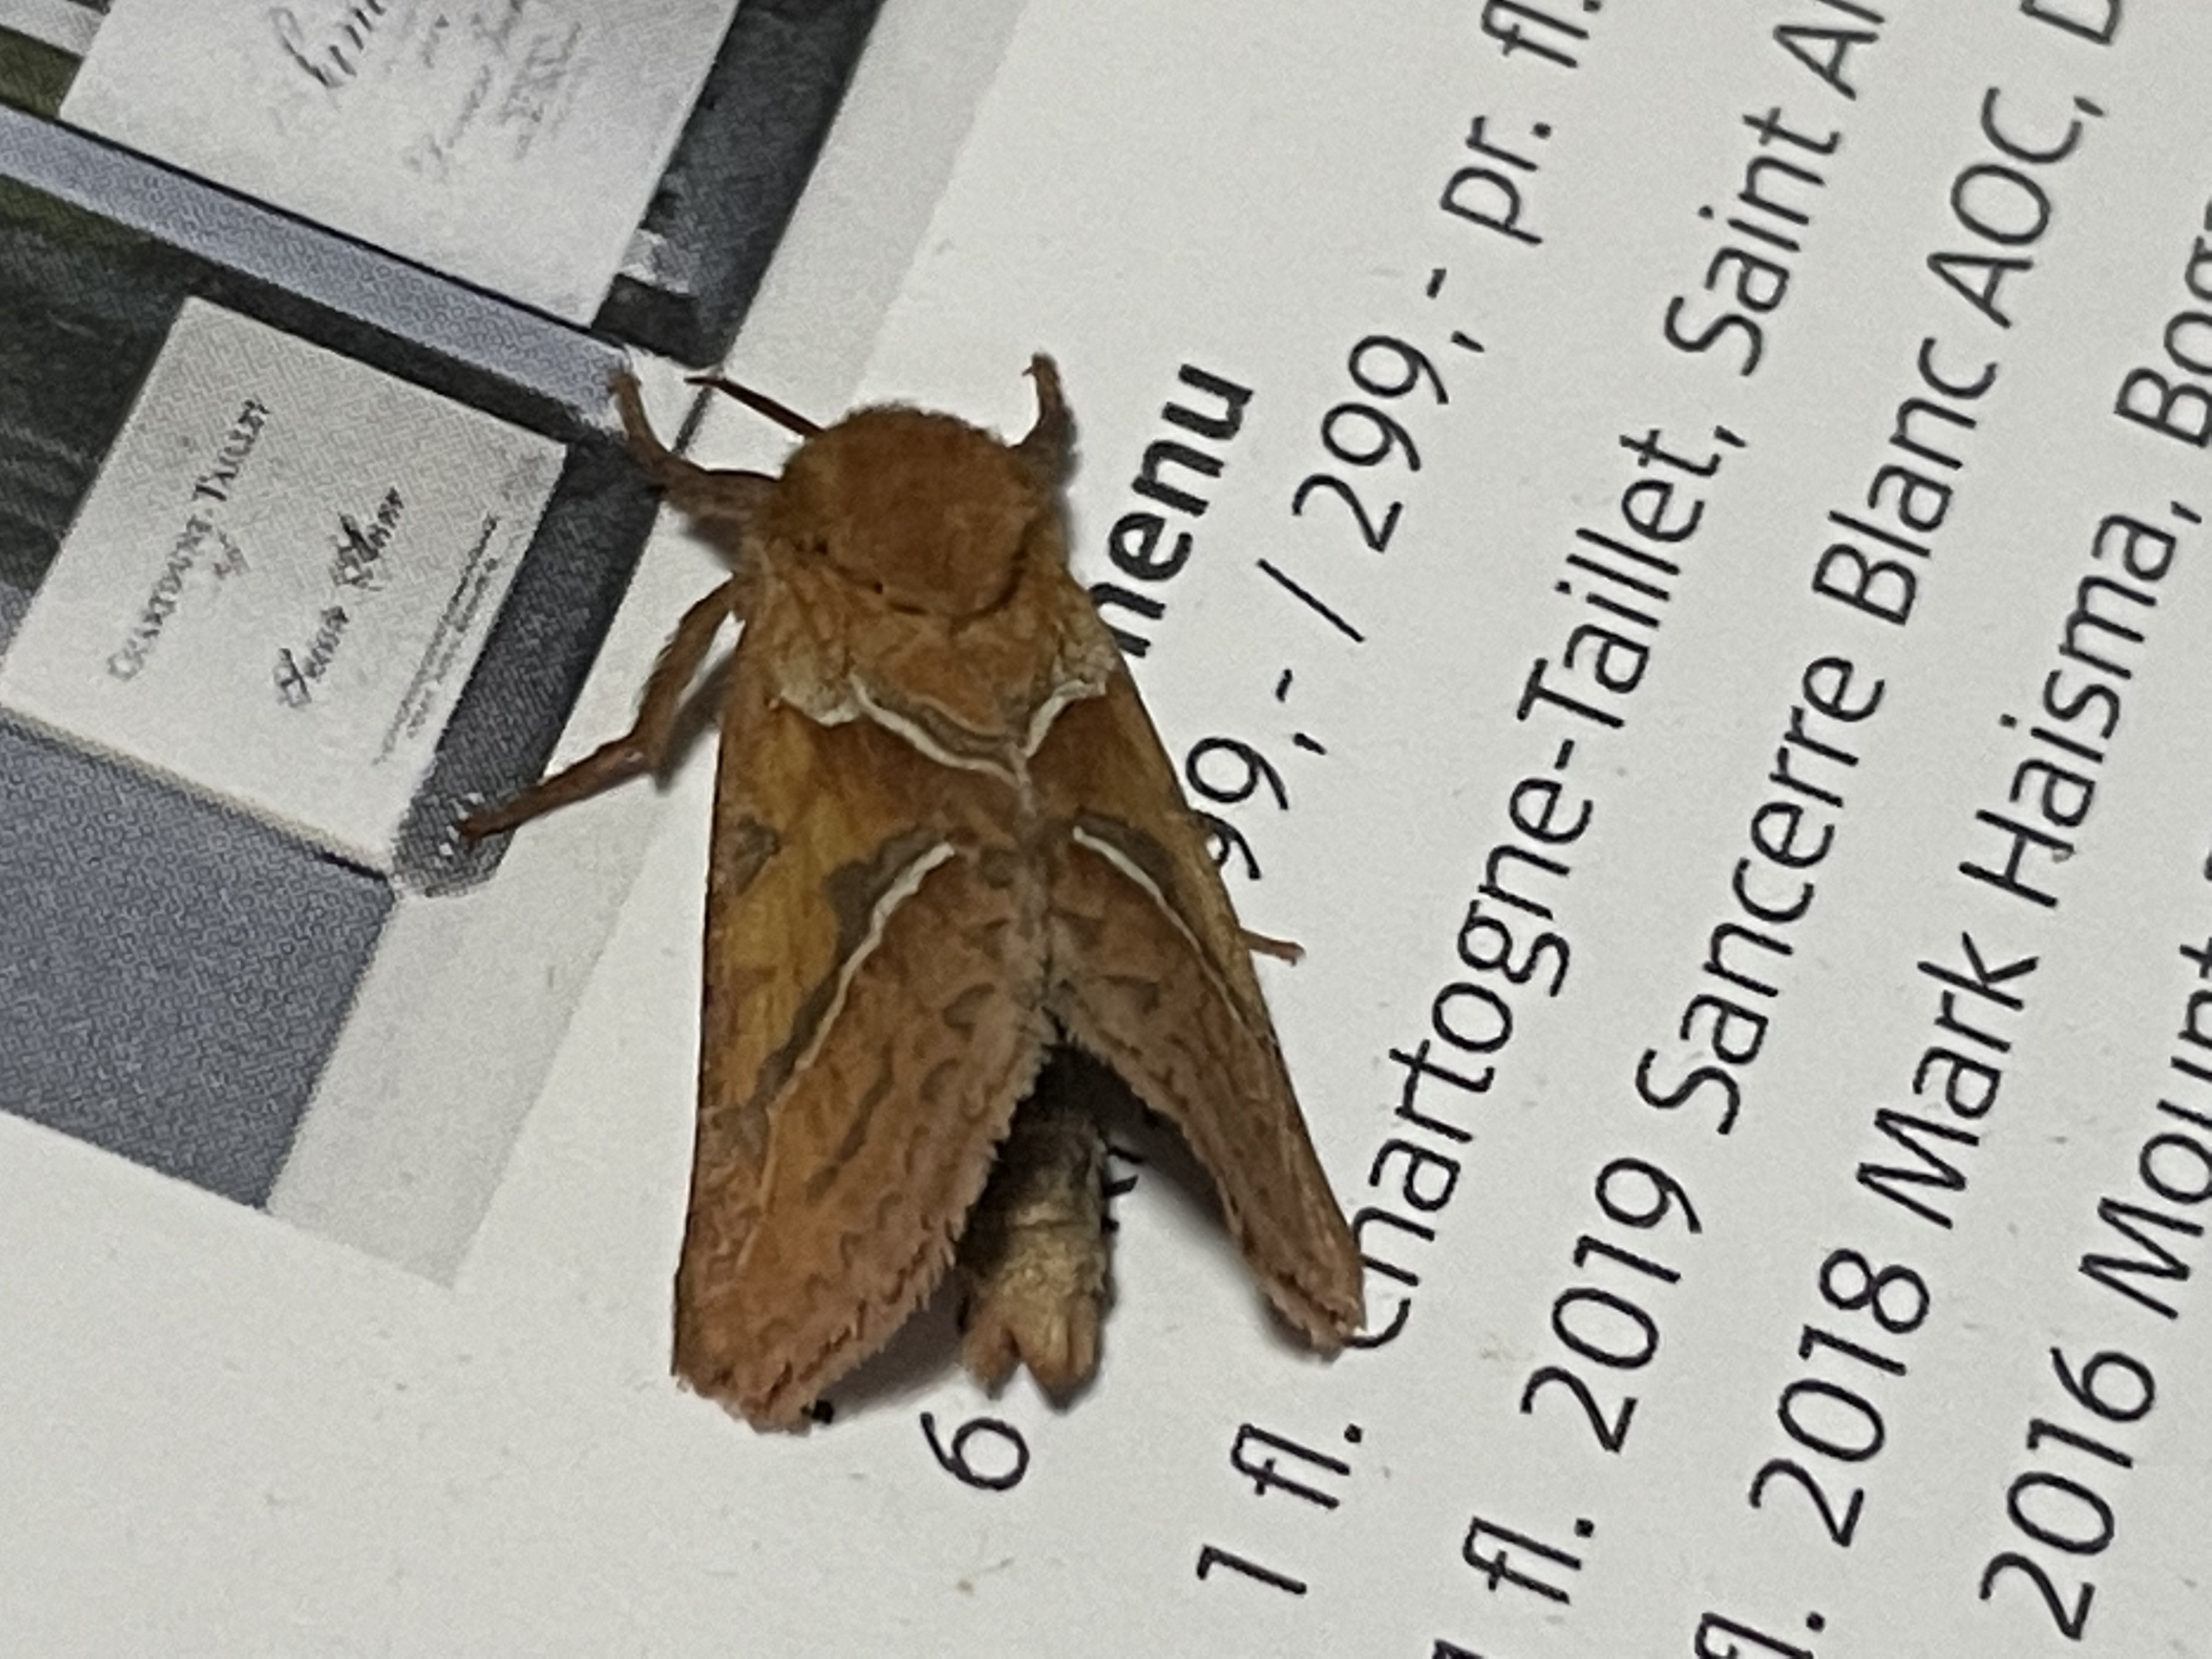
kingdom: Animalia
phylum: Arthropoda
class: Insecta
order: Lepidoptera
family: Hepialidae
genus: Triodia
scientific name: Triodia sylvina
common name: Skræpperodæder
